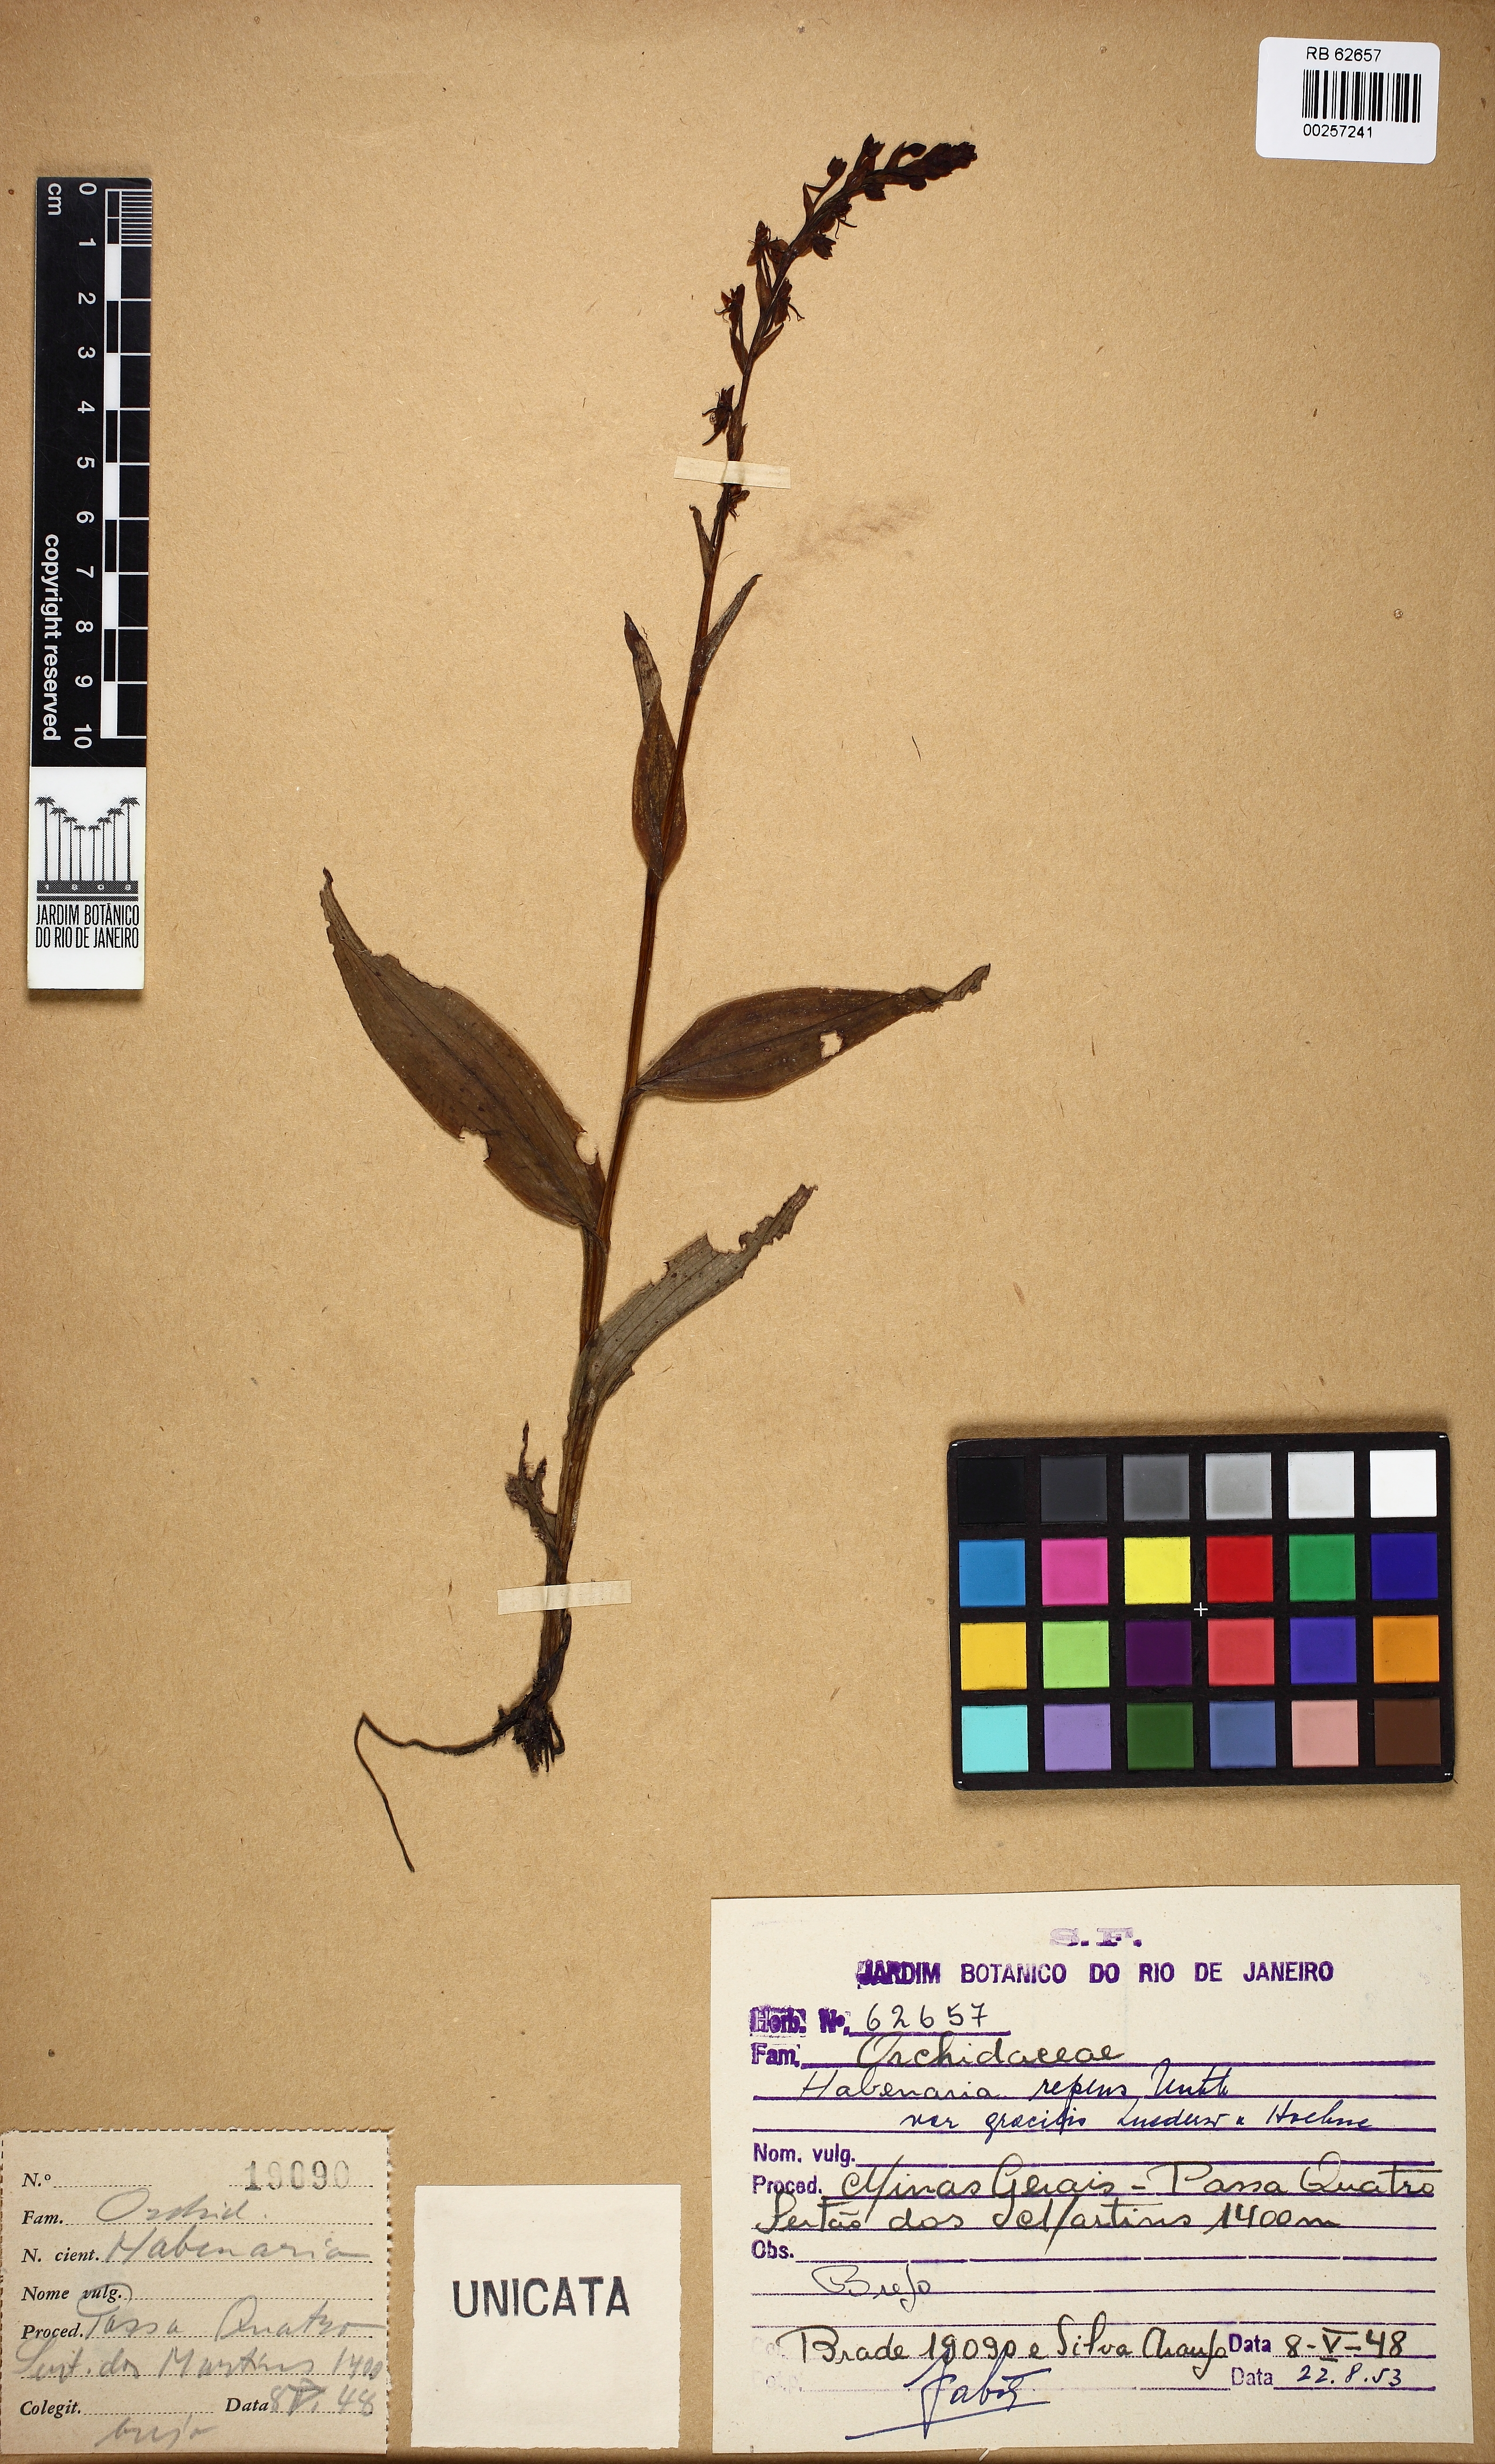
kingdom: Plantae
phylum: Tracheophyta
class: Liliopsida
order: Asparagales
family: Orchidaceae
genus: Habenaria
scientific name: Habenaria repens
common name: Water orchid
